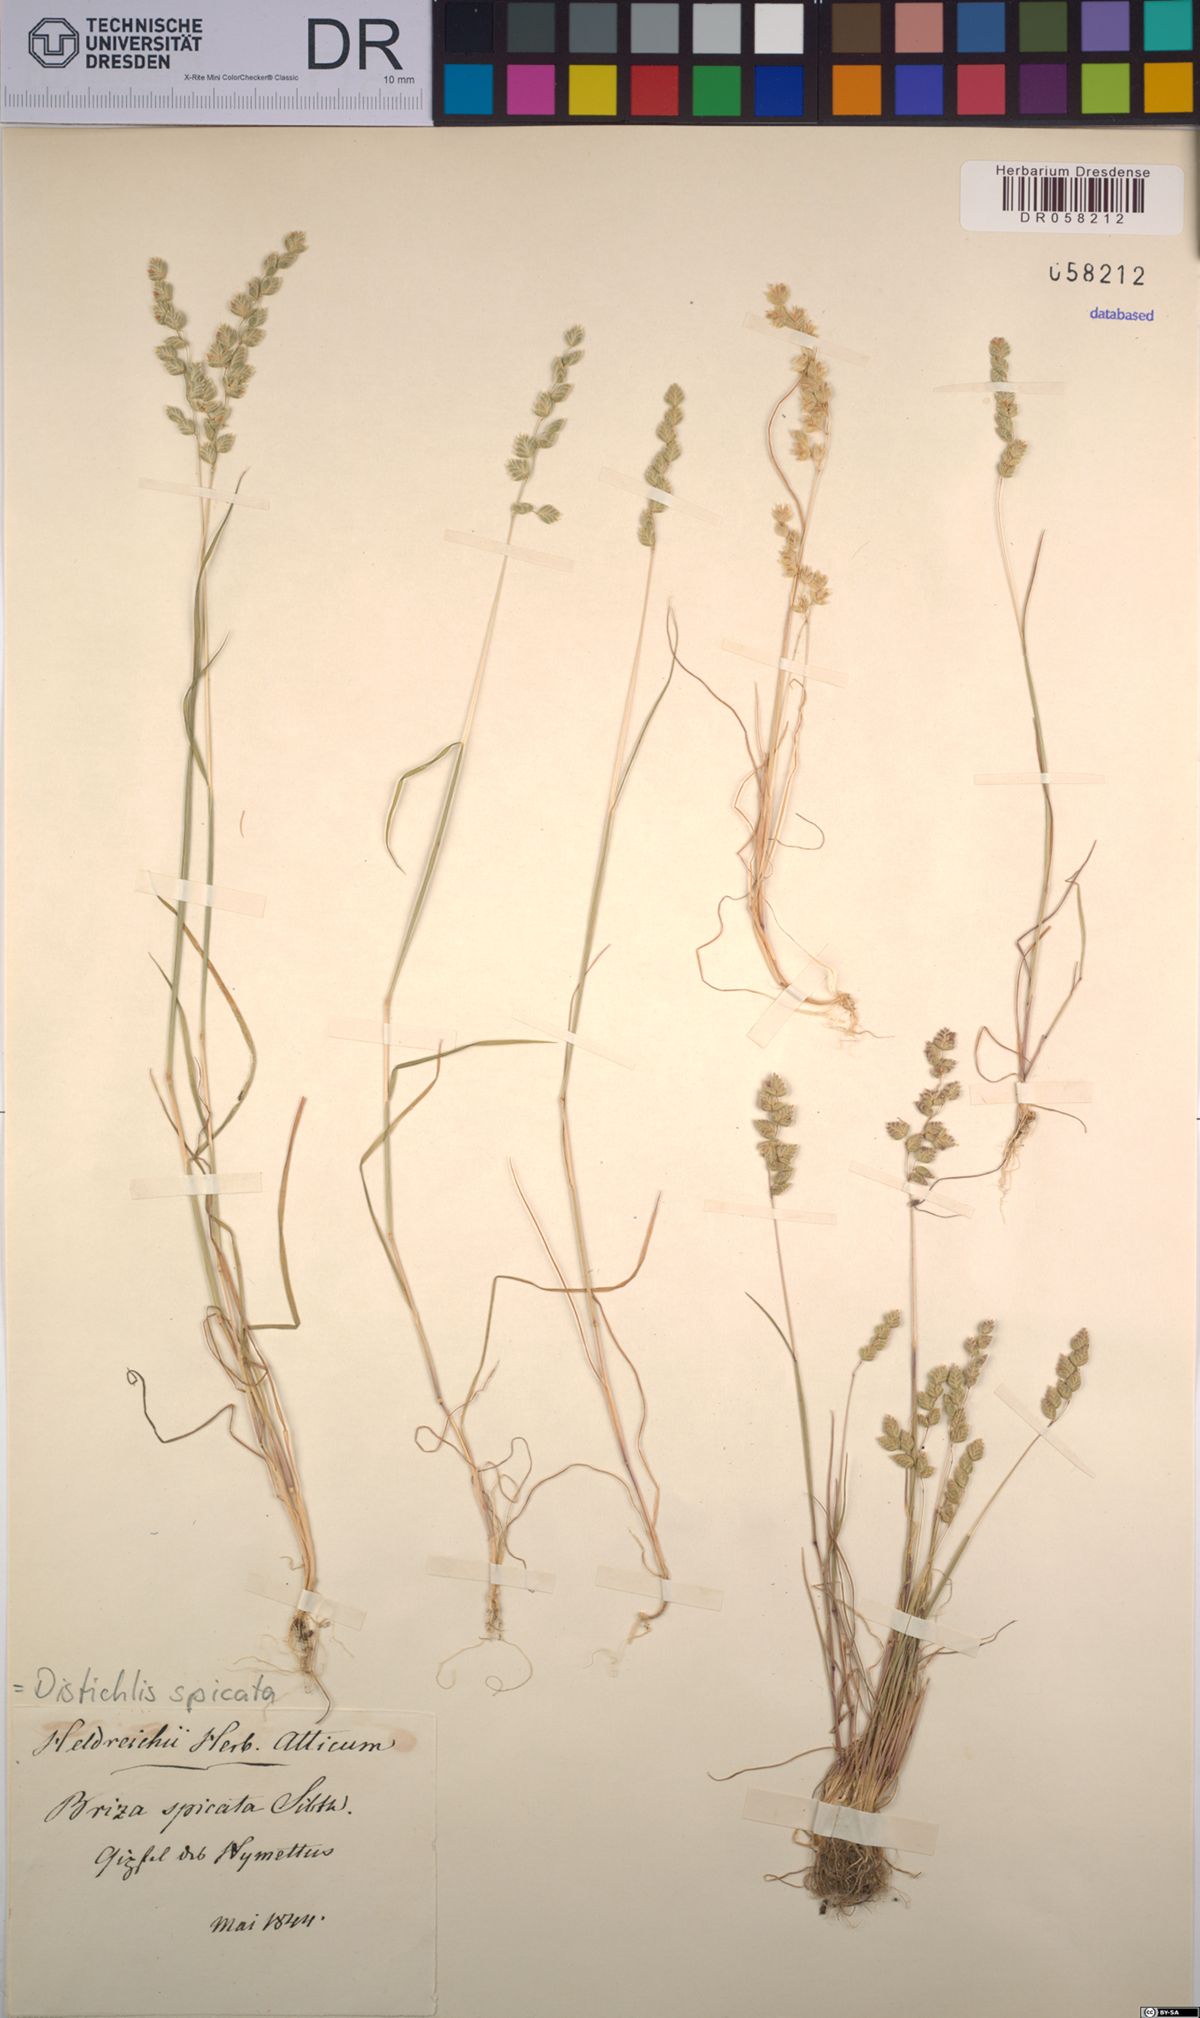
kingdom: Plantae
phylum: Tracheophyta
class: Liliopsida
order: Poales
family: Poaceae
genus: Distichlis
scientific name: Distichlis spicata
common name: Saltgrass
